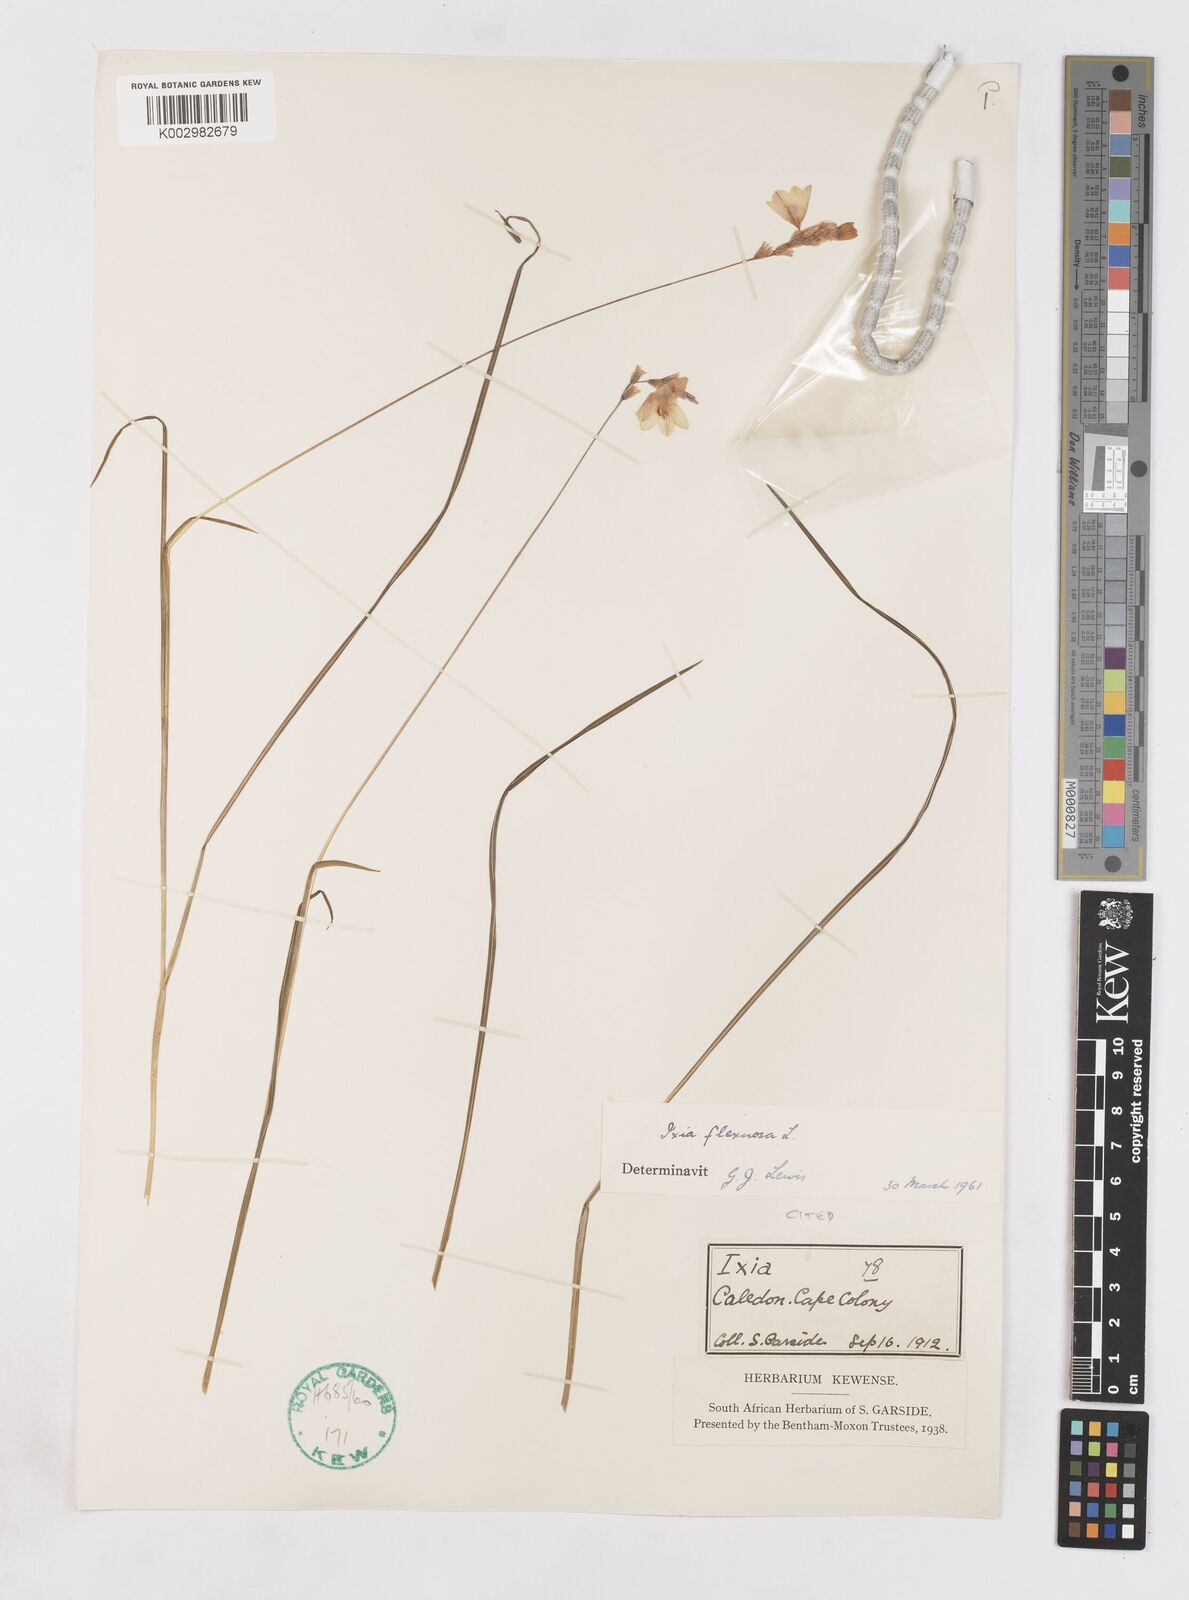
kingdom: Plantae
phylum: Tracheophyta
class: Liliopsida
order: Asparagales
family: Iridaceae
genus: Ixia
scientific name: Ixia flexuosa
